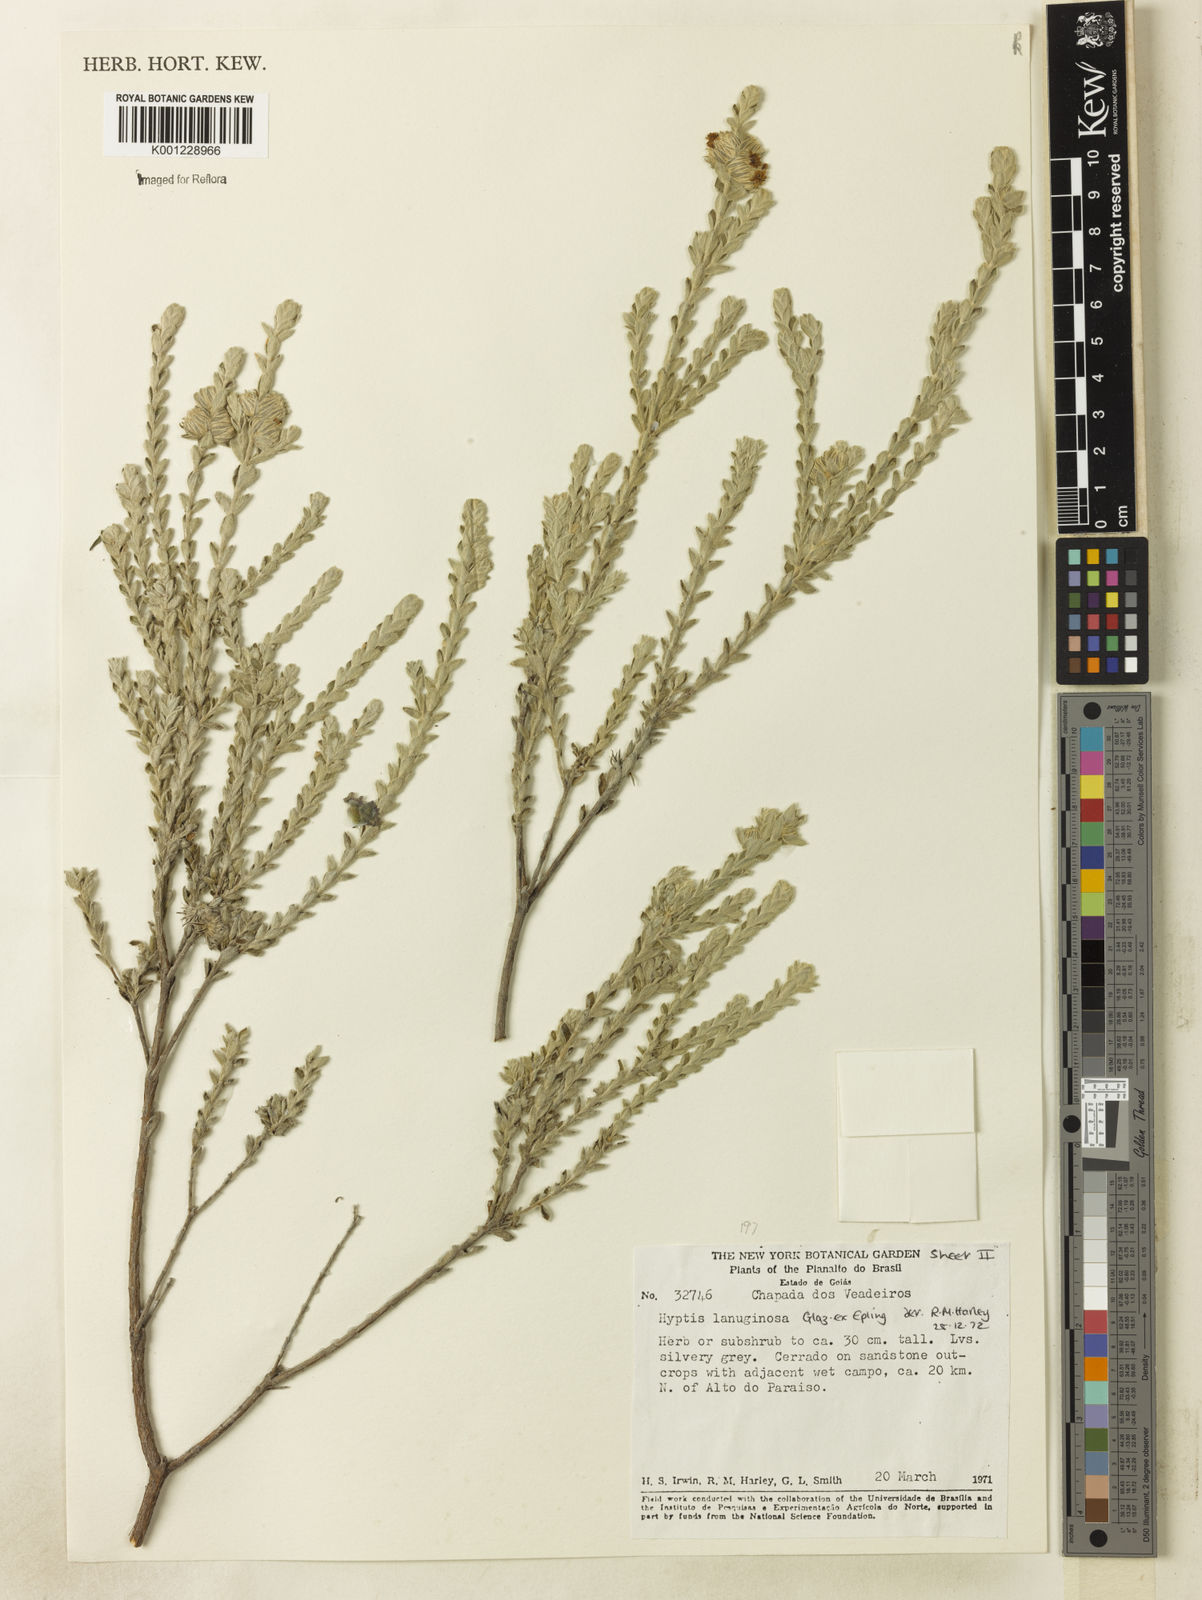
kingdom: Plantae
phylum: Tracheophyta
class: Magnoliopsida
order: Lamiales
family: Lamiaceae
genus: Hyptis
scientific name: Hyptis lanuginosa
